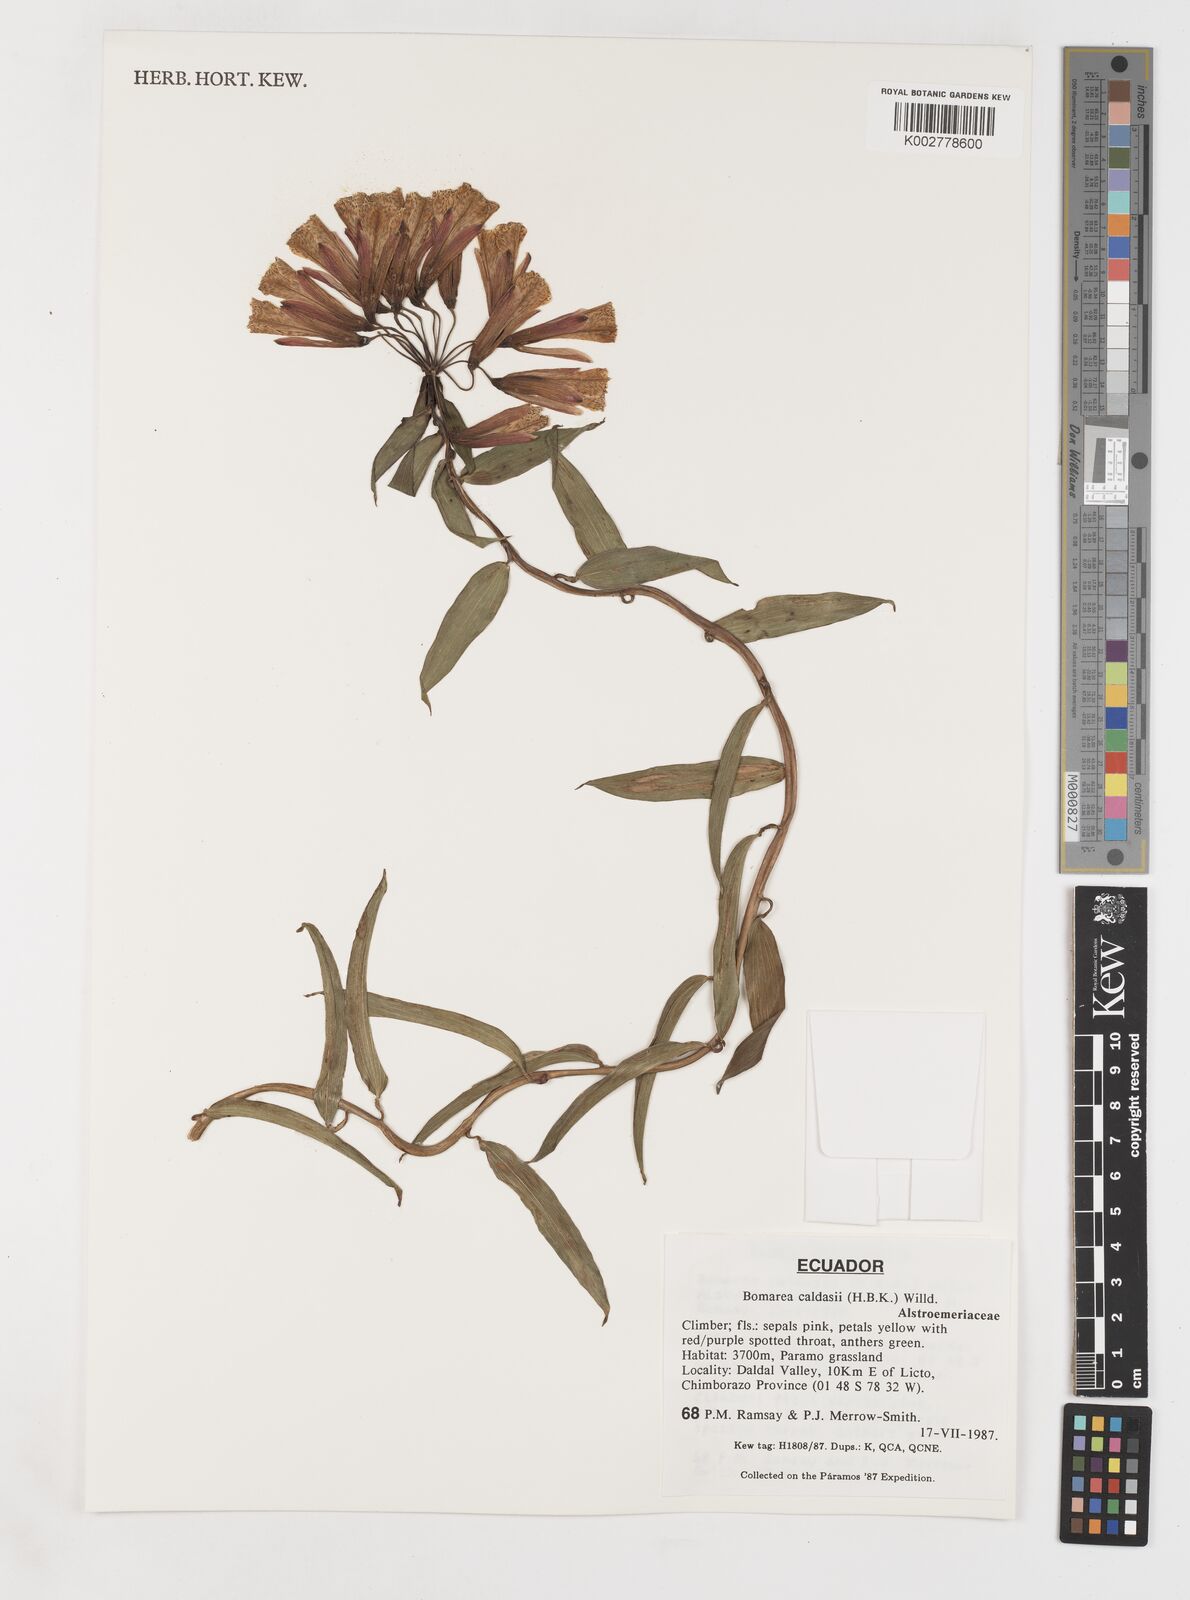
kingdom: Plantae
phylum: Tracheophyta
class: Liliopsida
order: Liliales
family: Alstroemeriaceae
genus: Bomarea
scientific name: Bomarea multiflora
